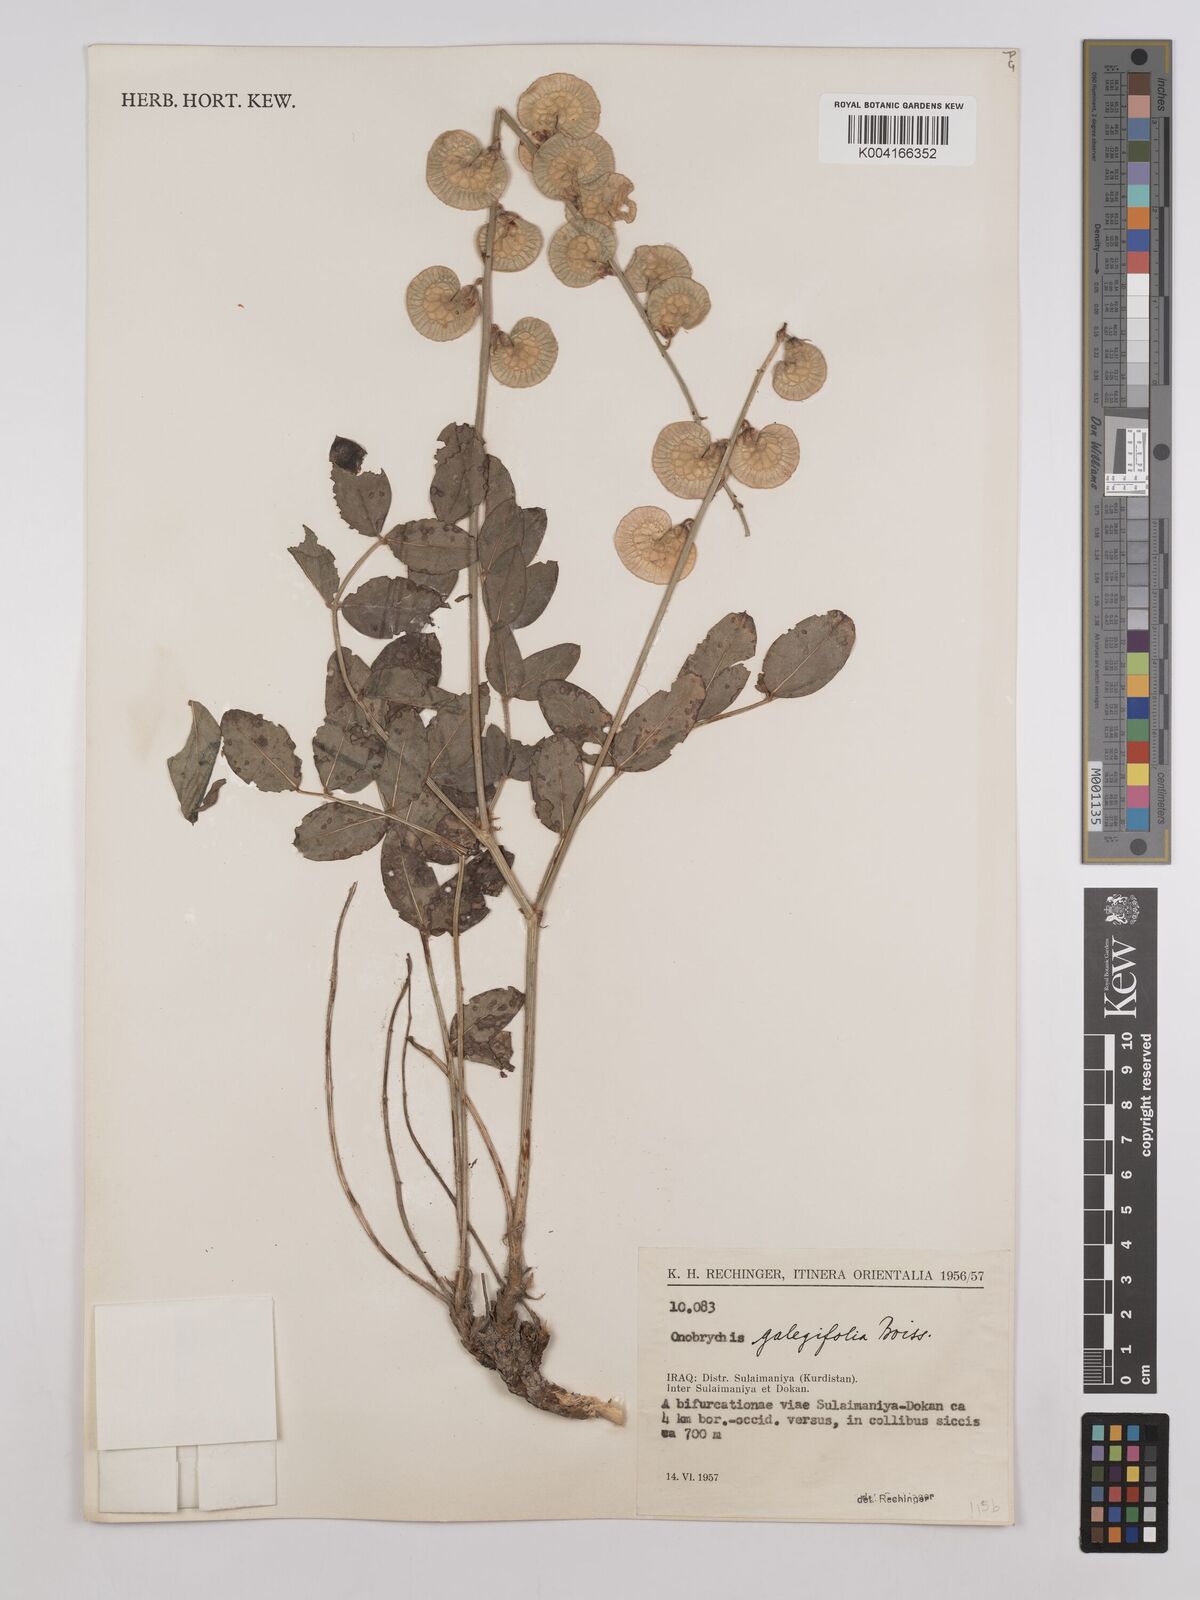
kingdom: Plantae
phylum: Tracheophyta
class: Magnoliopsida
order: Fabales
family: Fabaceae
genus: Onobrychis
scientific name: Onobrychis galegifolia
